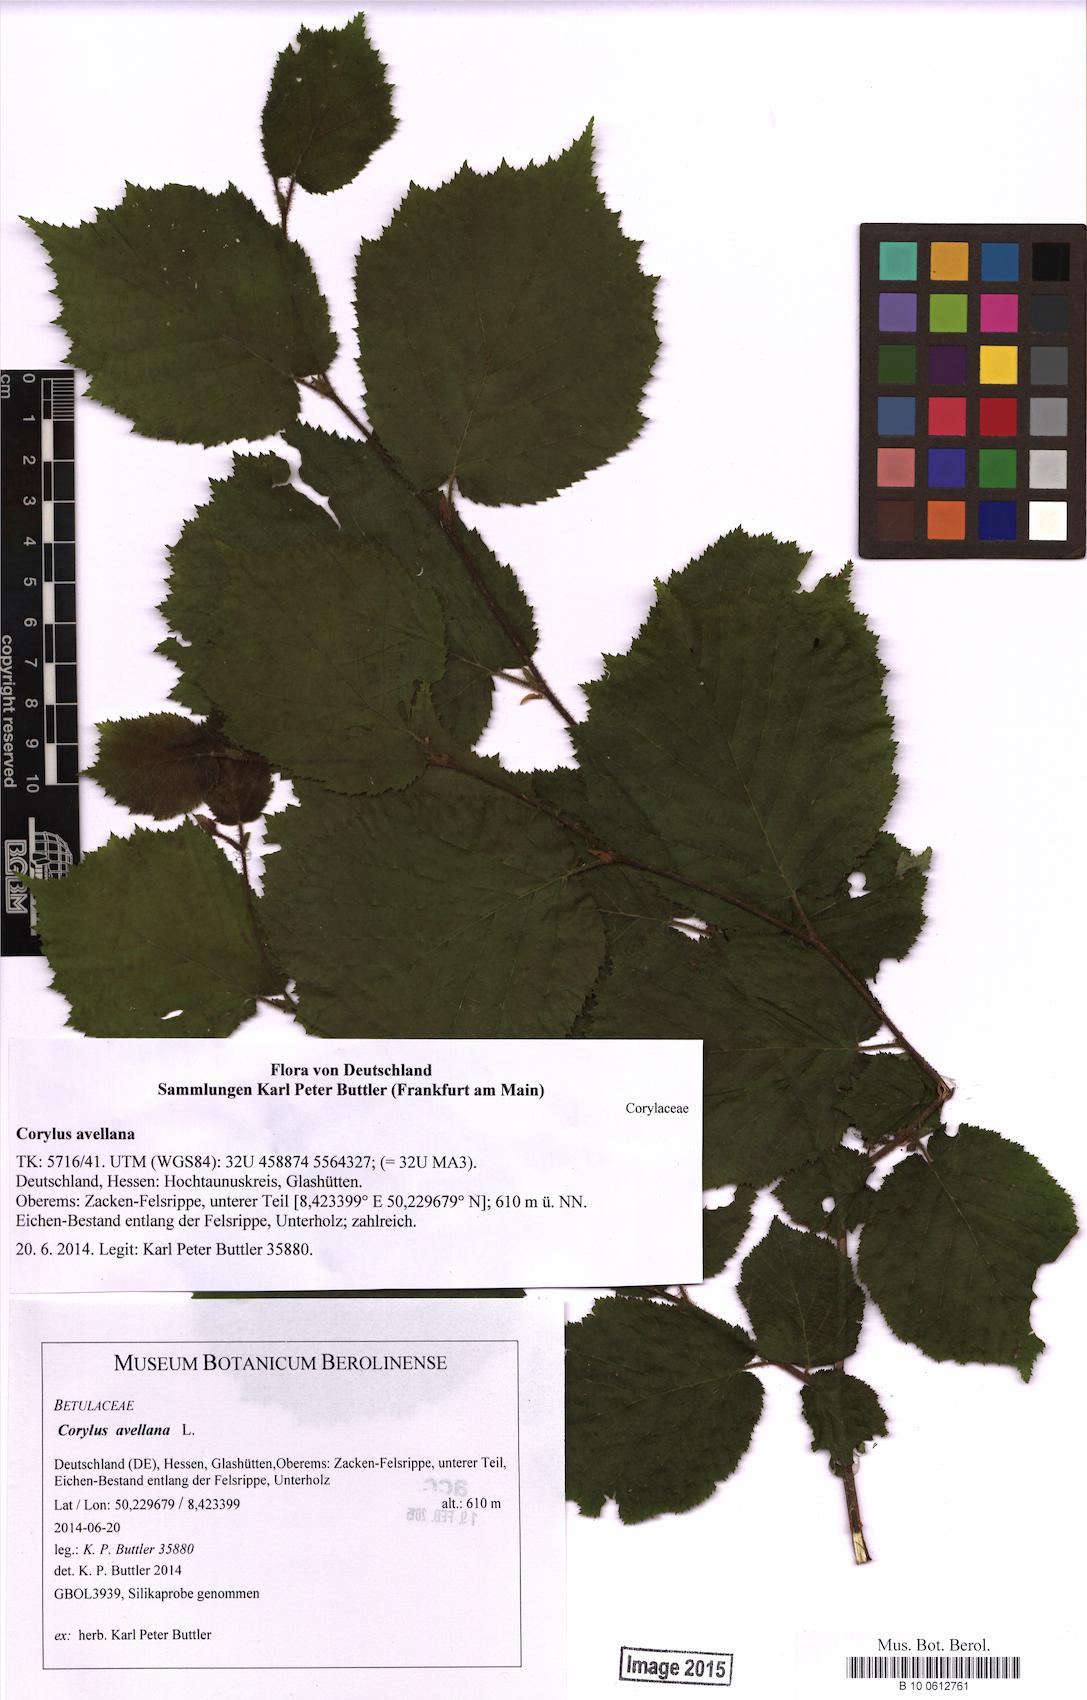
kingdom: Plantae
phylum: Tracheophyta
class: Magnoliopsida
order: Fagales
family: Betulaceae
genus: Corylus
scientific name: Corylus avellana
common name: European hazel
